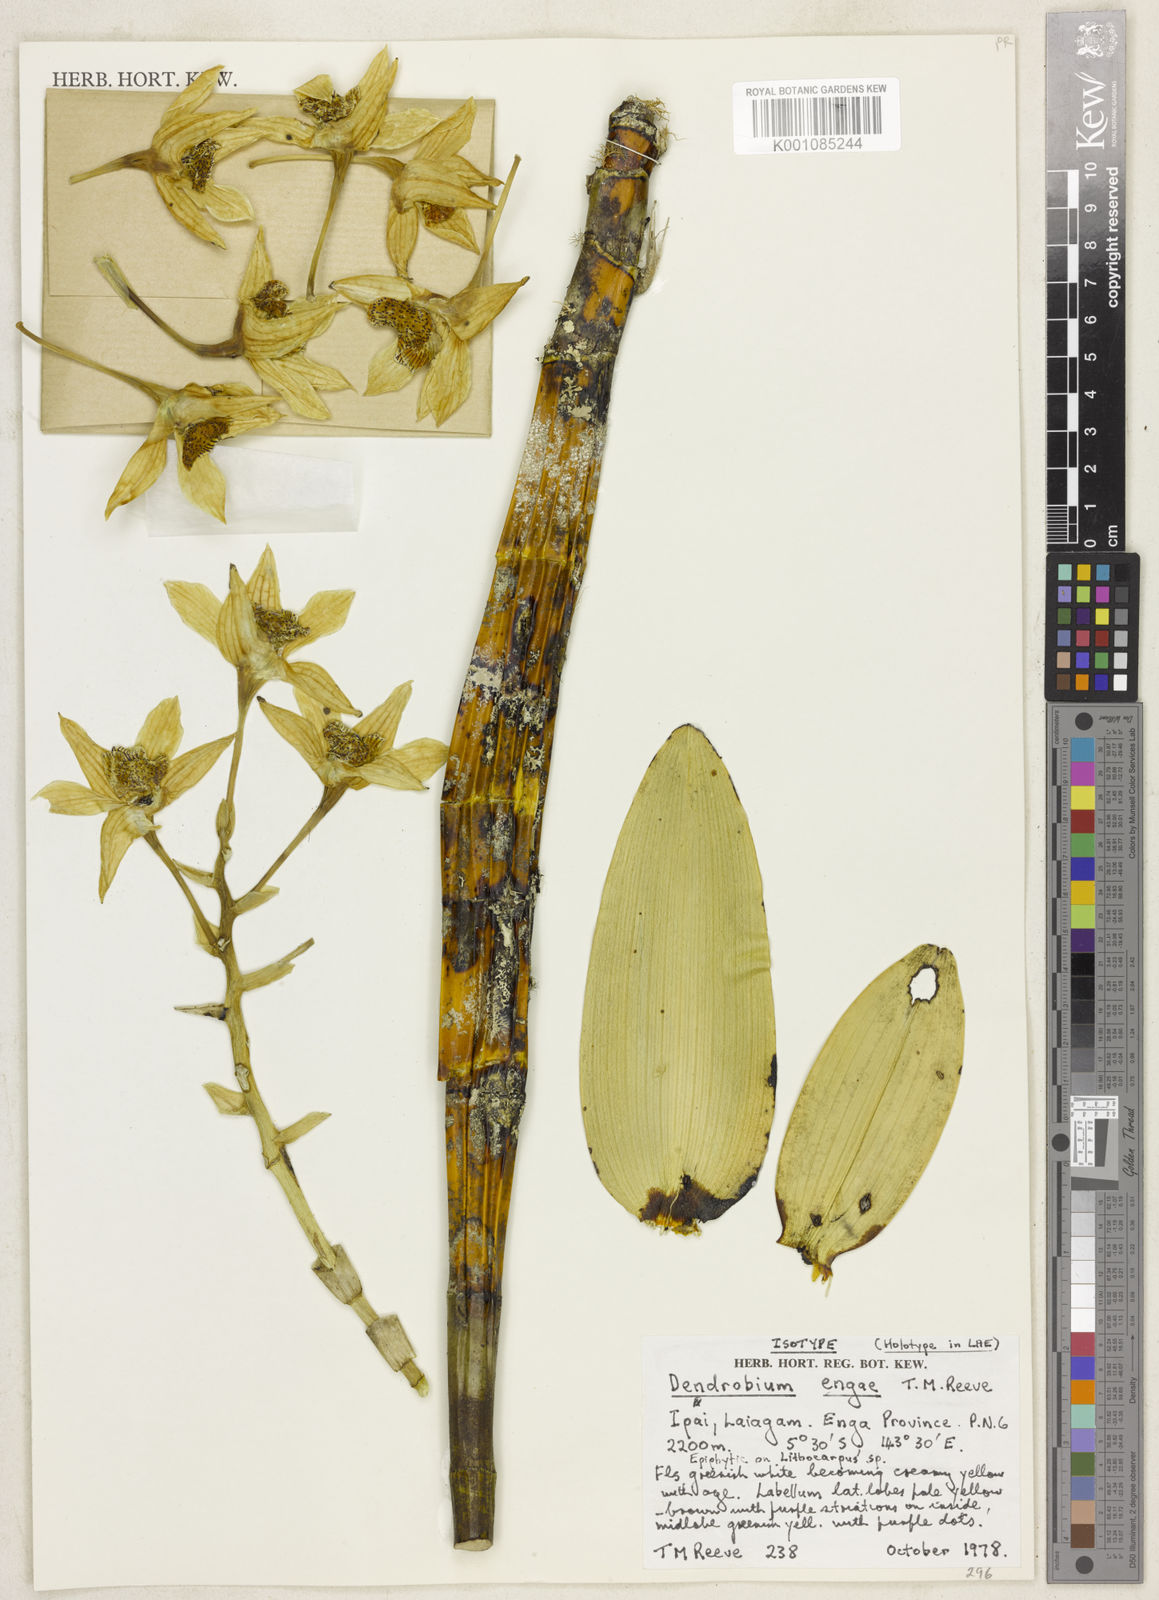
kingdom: Plantae
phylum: Tracheophyta
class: Liliopsida
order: Asparagales
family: Orchidaceae
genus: Dendrobium
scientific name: Dendrobium engae
